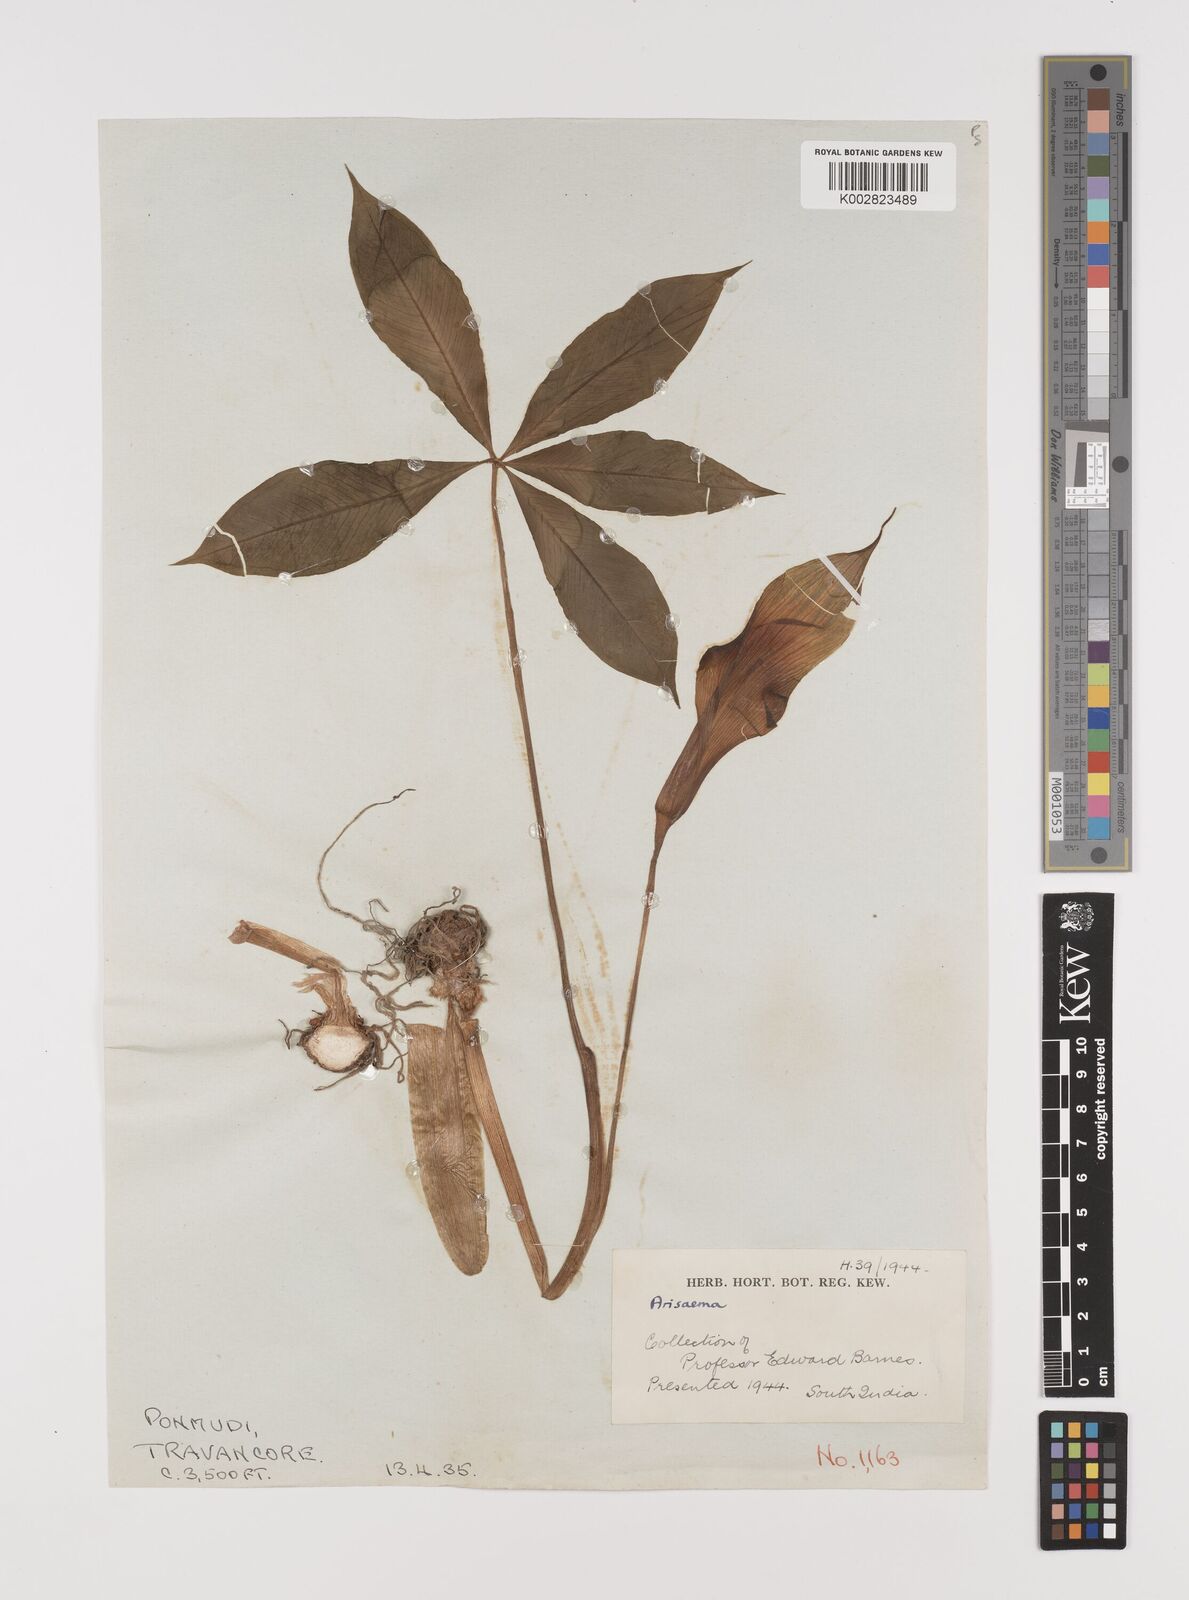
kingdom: Plantae
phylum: Tracheophyta
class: Liliopsida
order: Alismatales
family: Araceae
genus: Arisaema
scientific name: Arisaema
